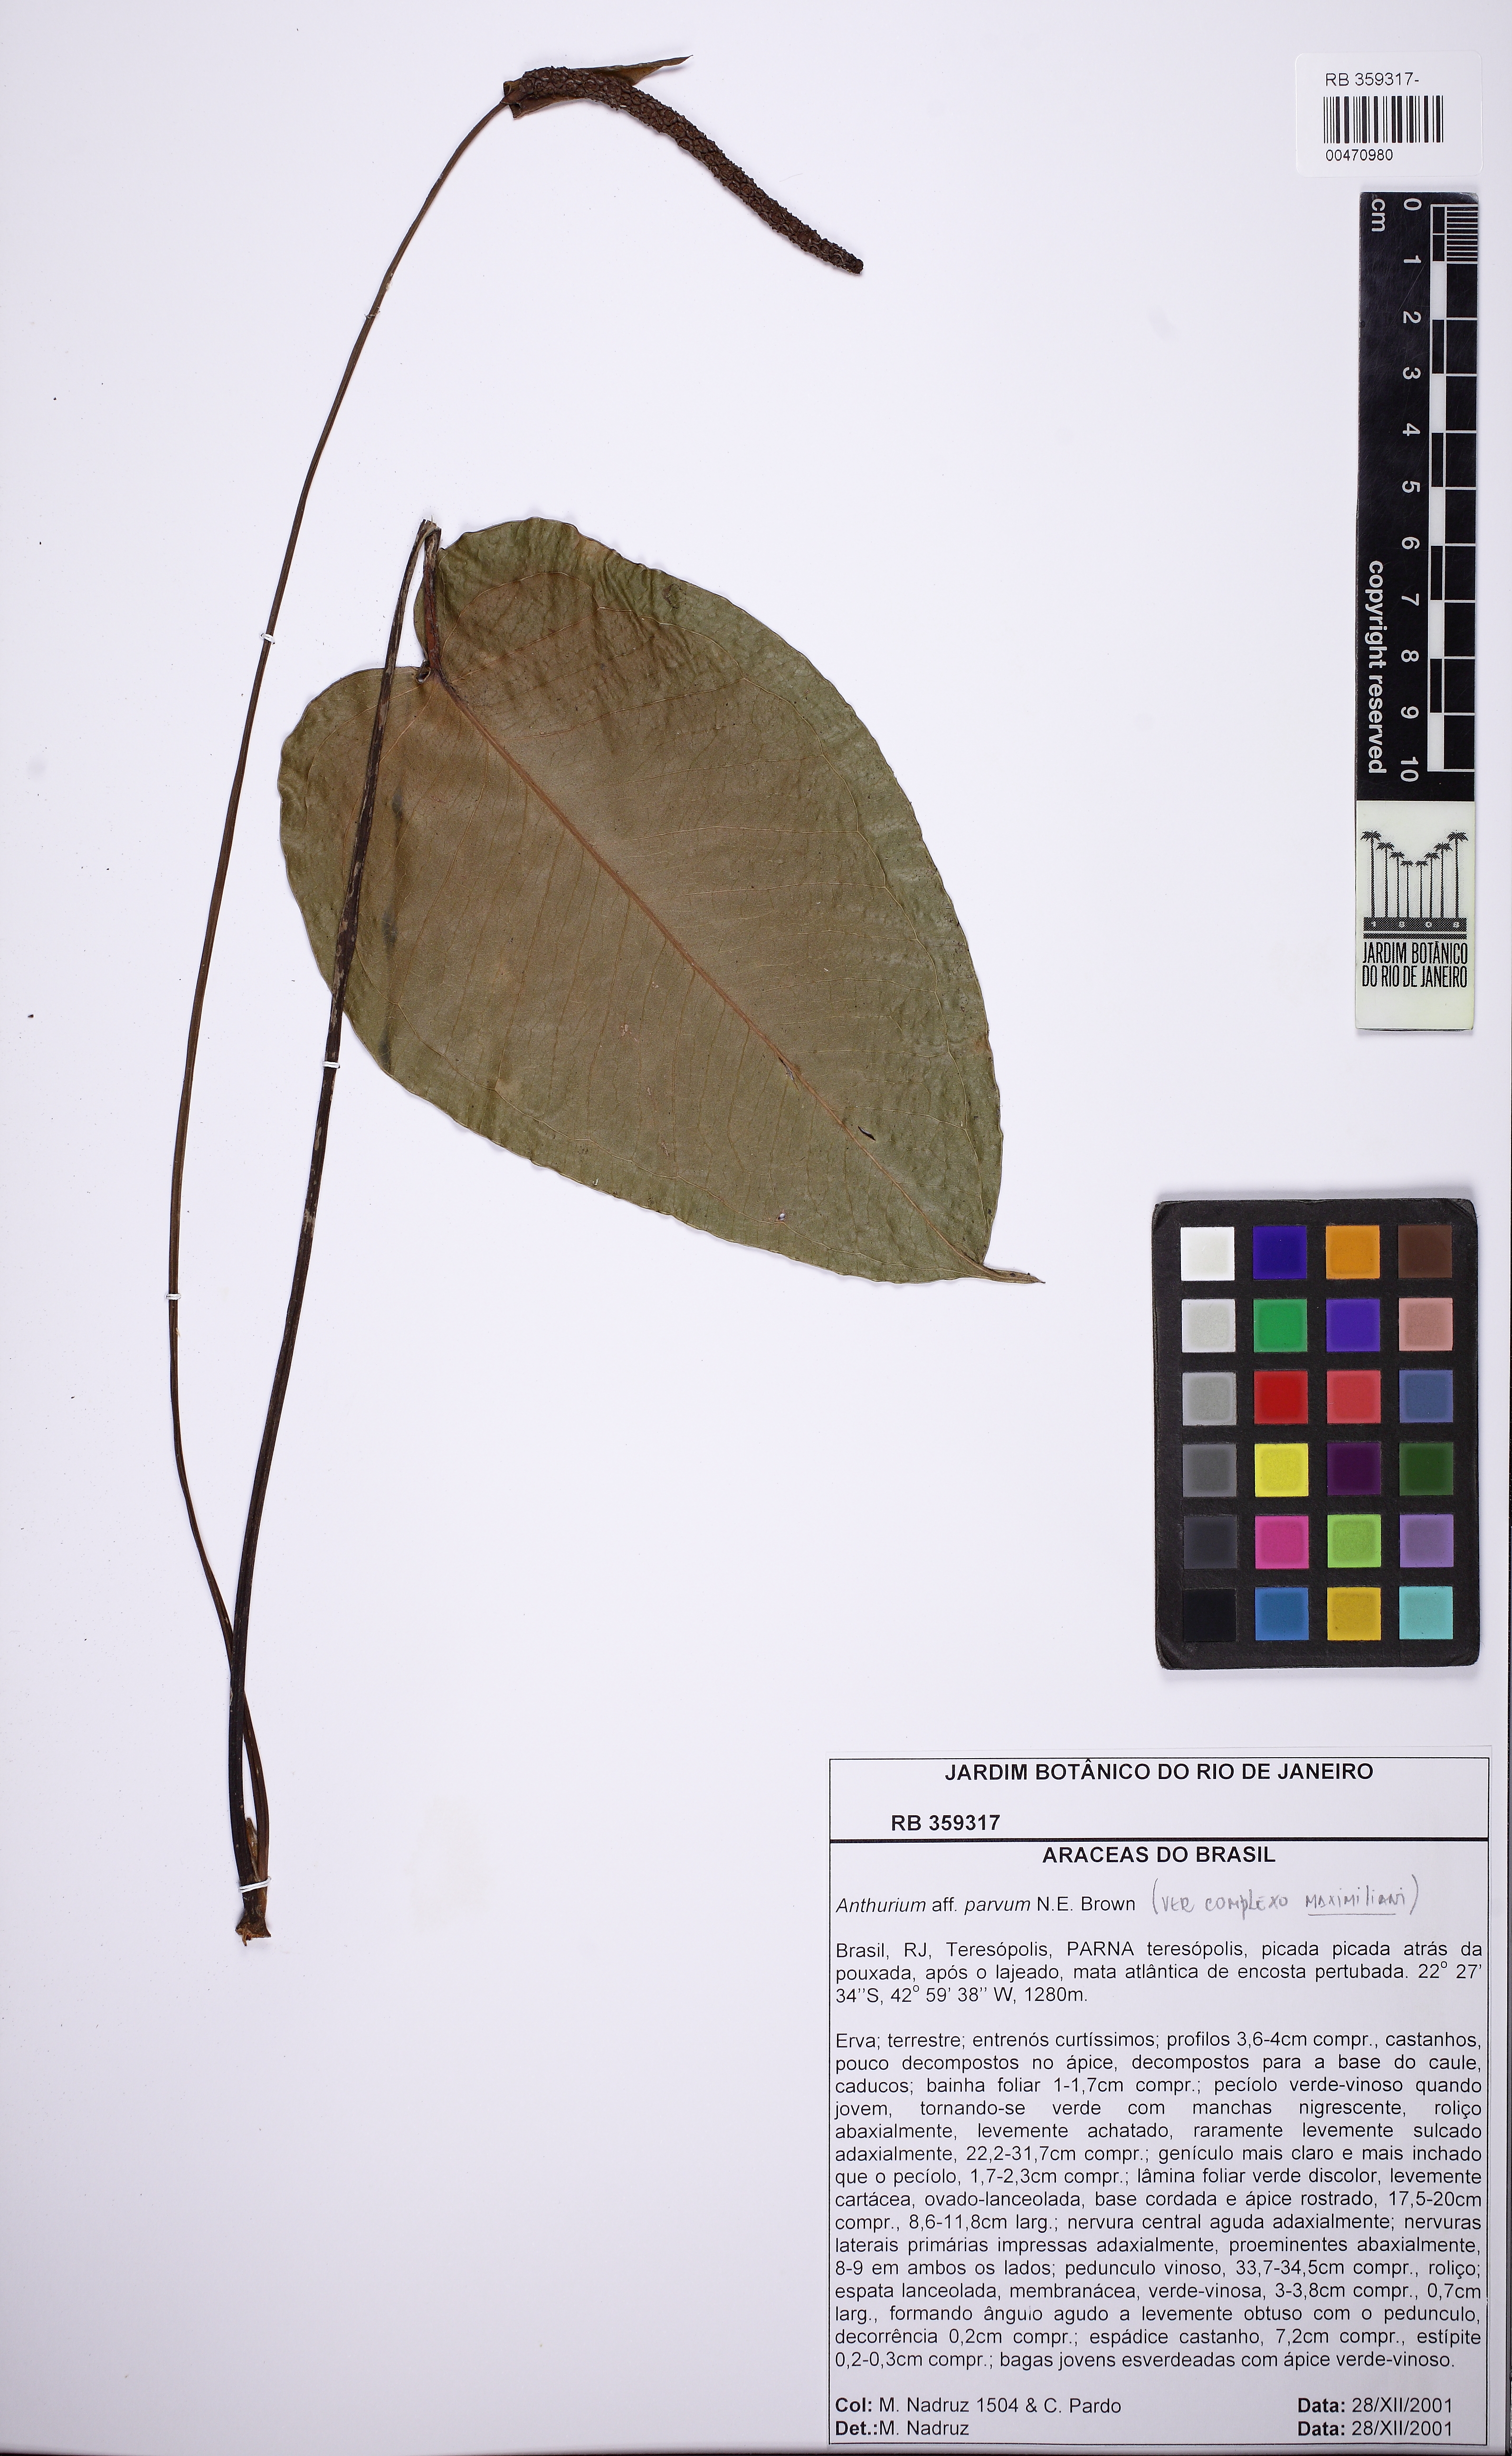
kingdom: Plantae
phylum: Tracheophyta
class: Liliopsida
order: Alismatales
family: Araceae
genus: Anthurium
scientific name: Anthurium parvum
